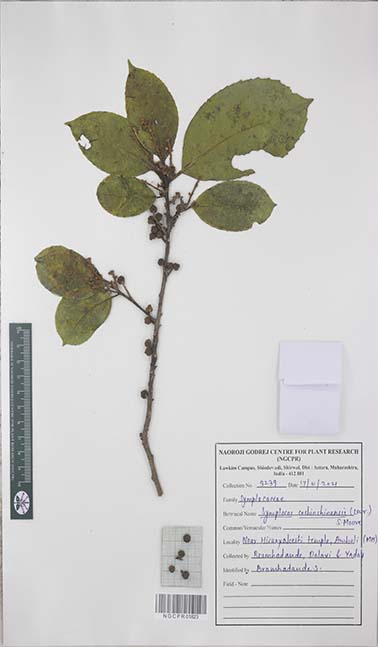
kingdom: Plantae
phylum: Tracheophyta
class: Magnoliopsida
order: Ericales
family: Symplocaceae
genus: Symplocos
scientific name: Symplocos cochinchinensis
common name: Buff hazelwood
